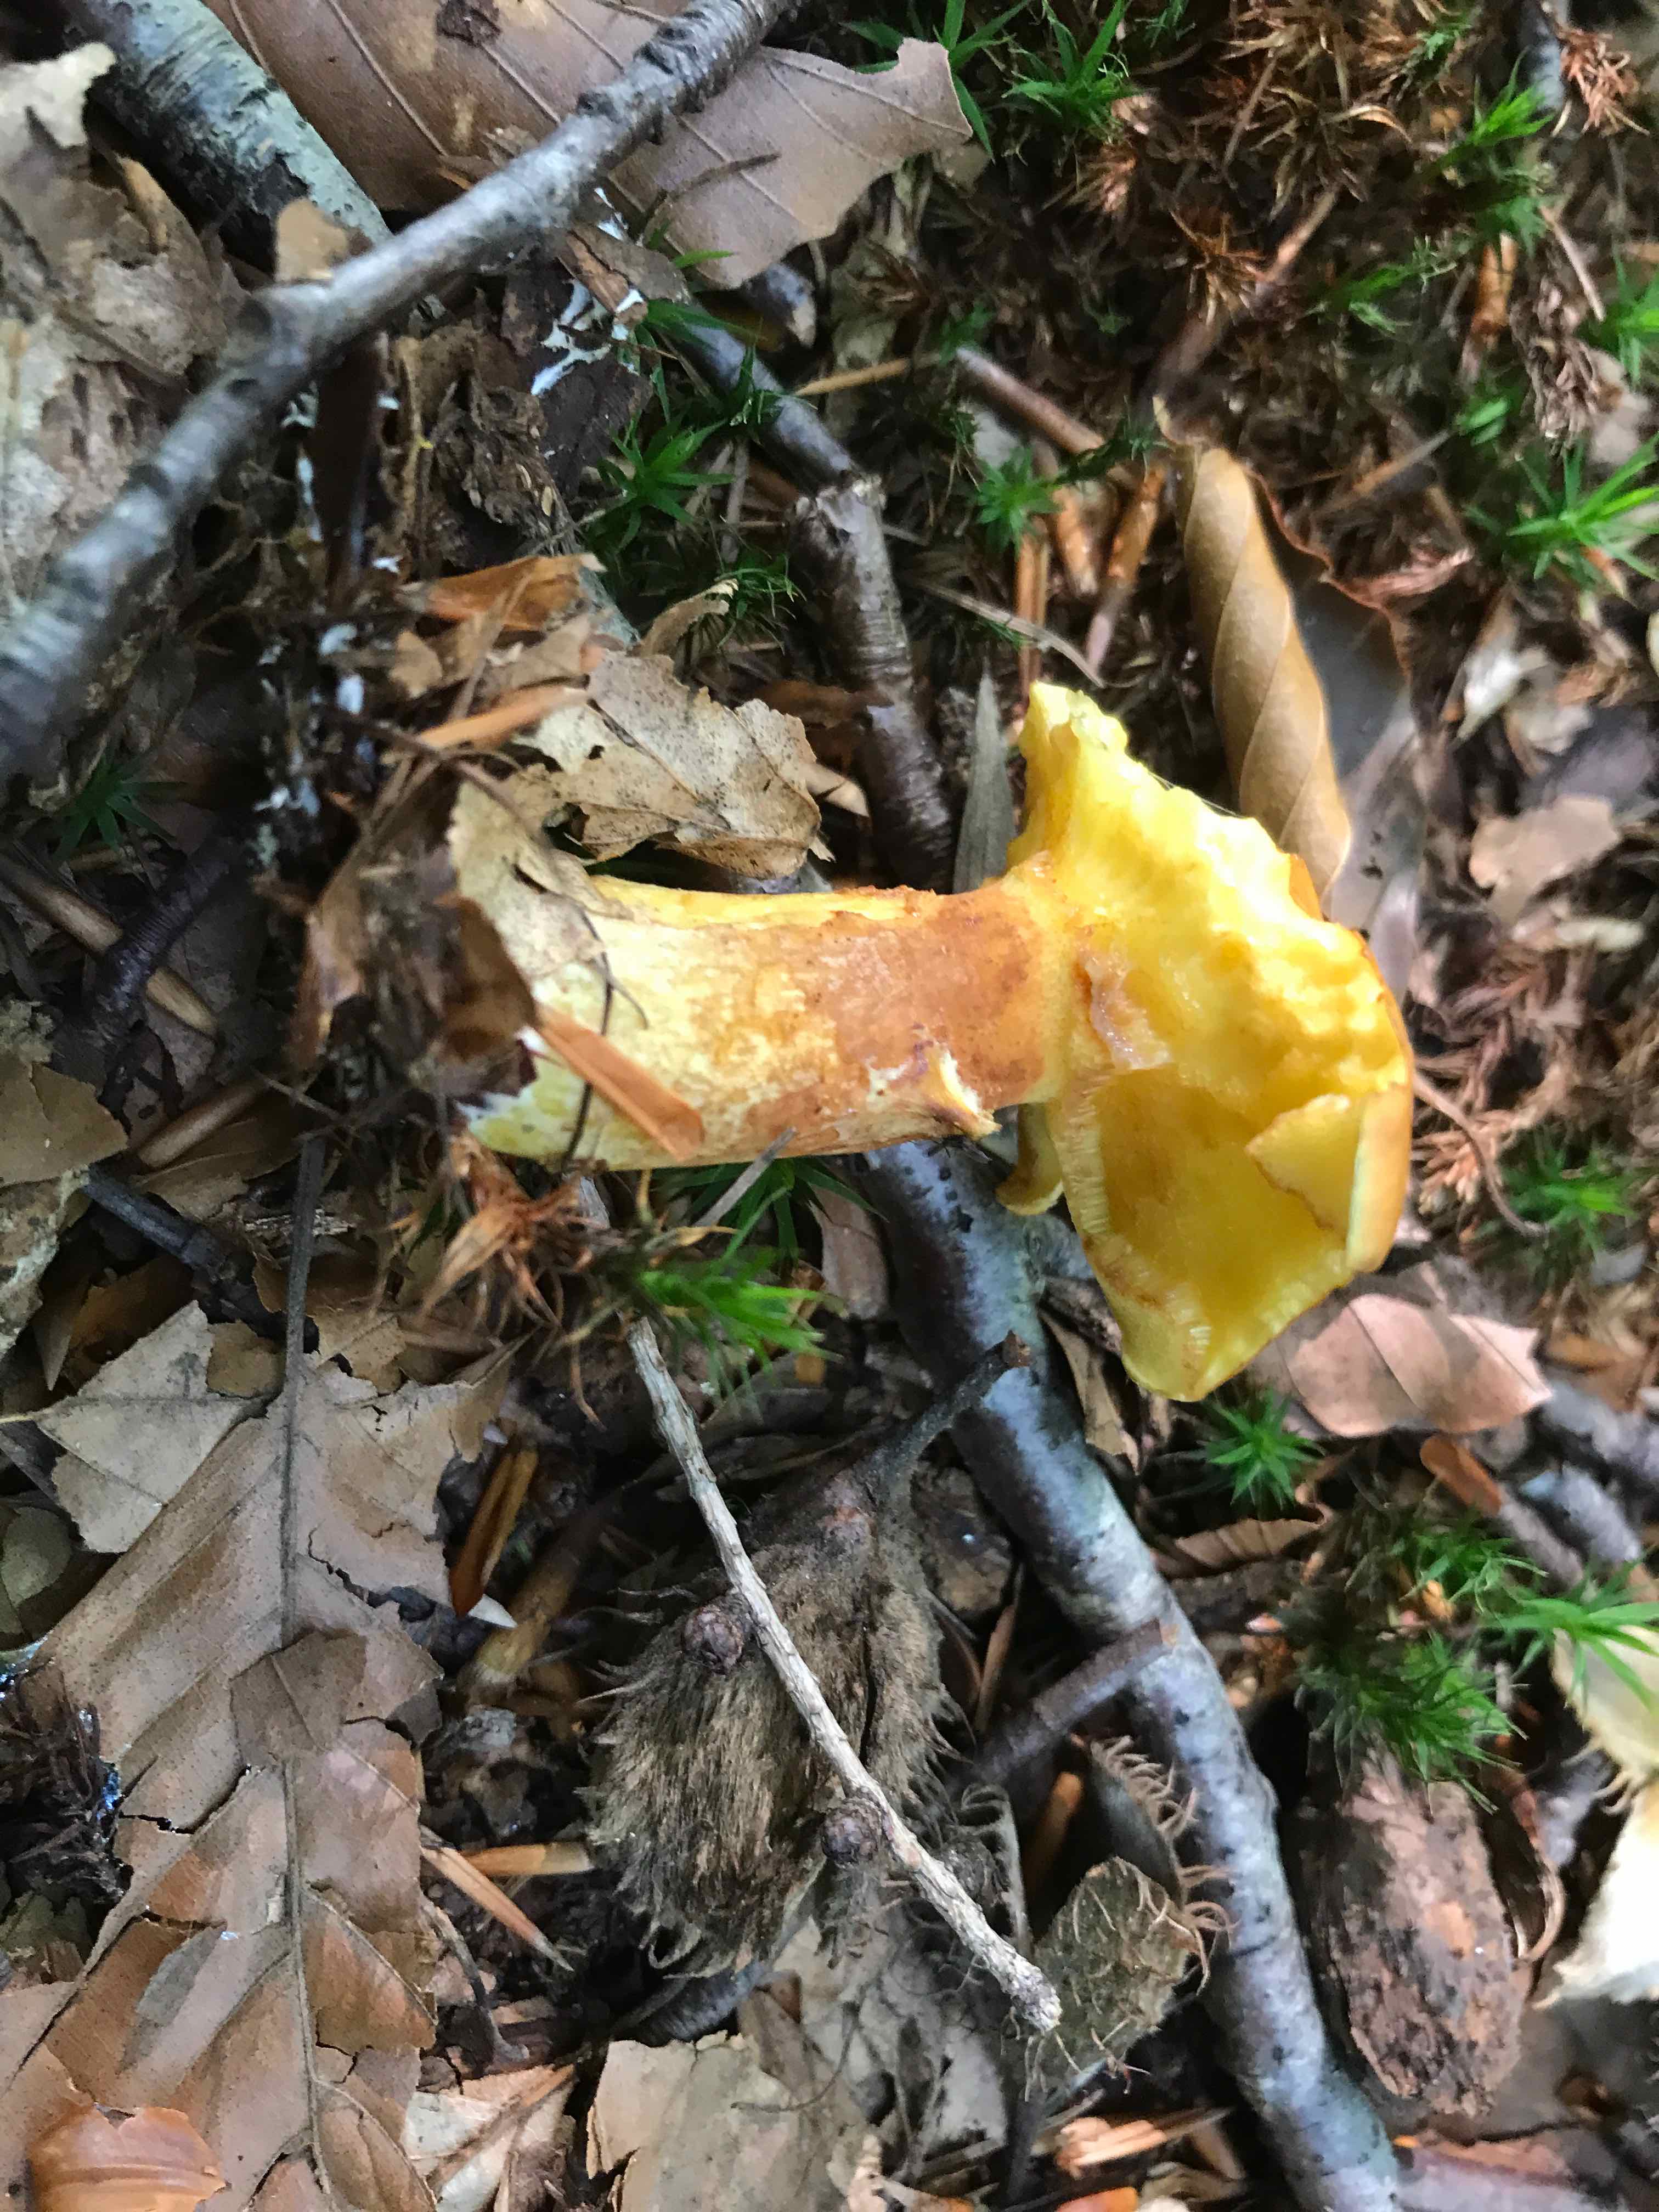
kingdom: Fungi
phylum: Basidiomycota
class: Agaricomycetes
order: Boletales
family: Suillaceae
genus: Suillus
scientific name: Suillus grevillei
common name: lærke-slimrørhat
